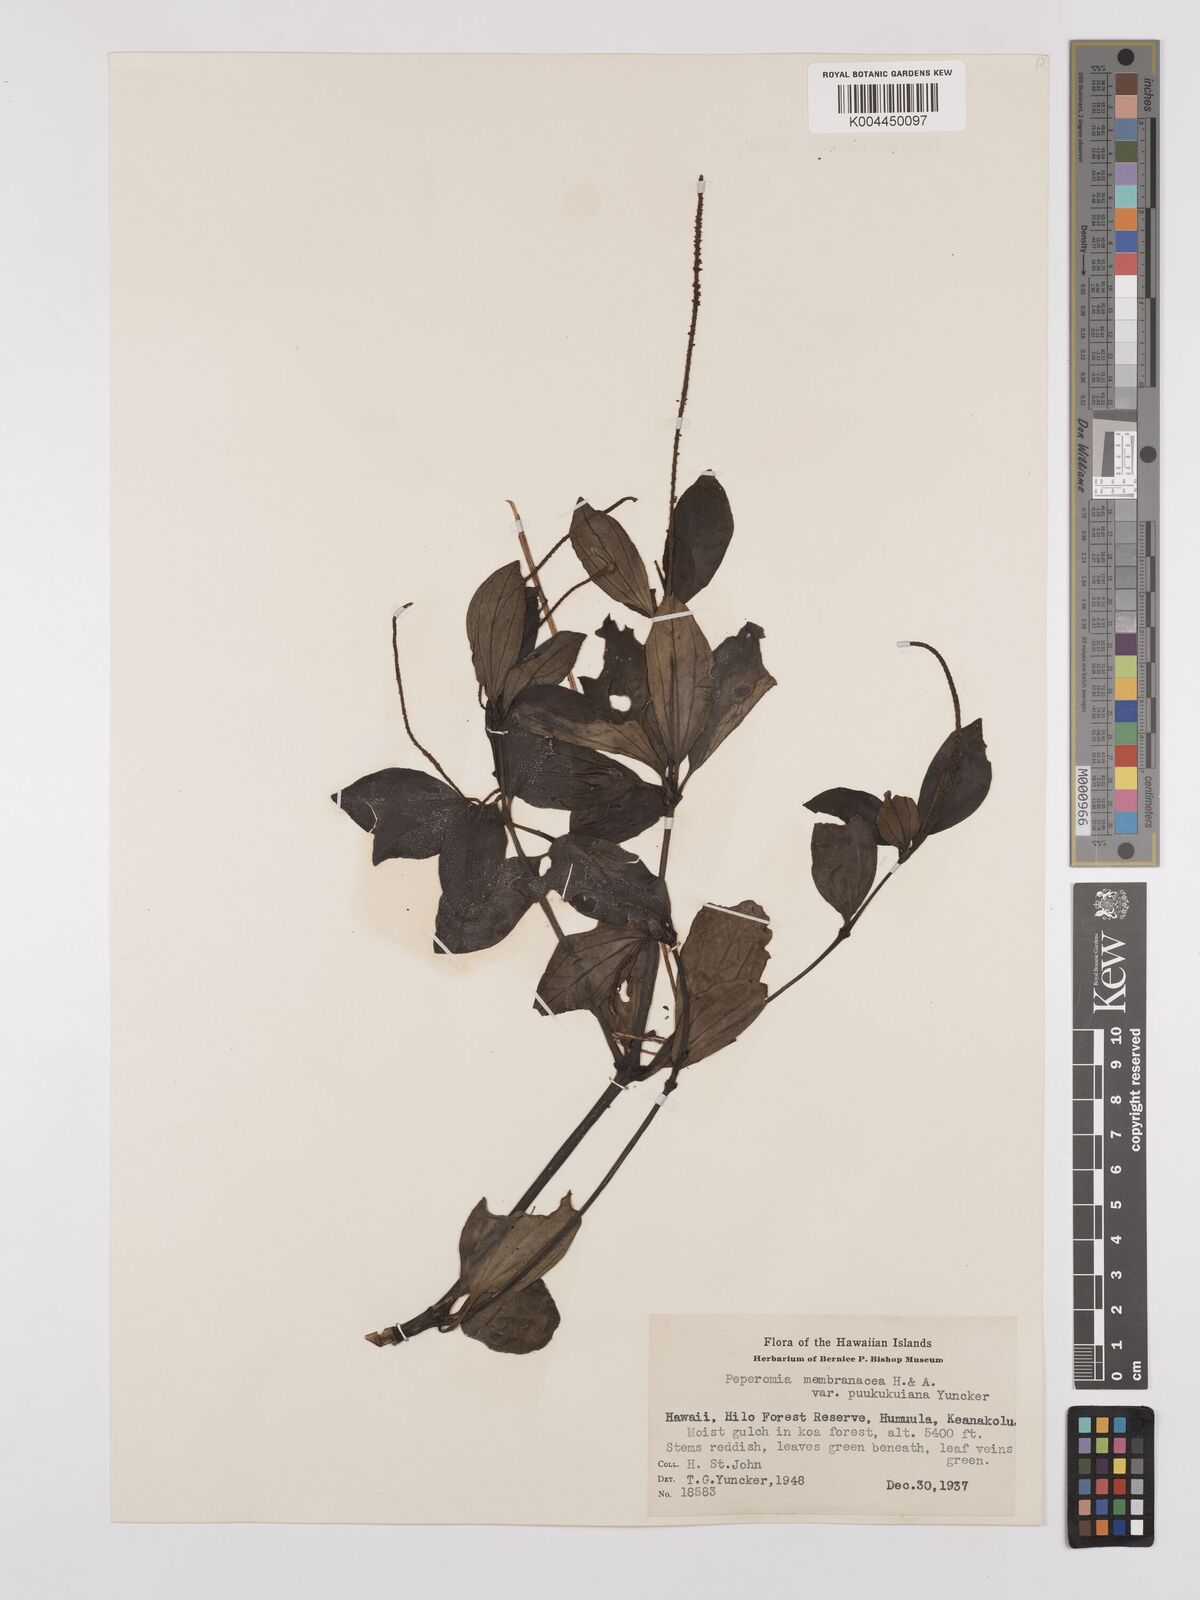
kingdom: Plantae
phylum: Tracheophyta
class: Magnoliopsida
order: Piperales
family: Piperaceae
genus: Peperomia
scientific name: Peperomia
